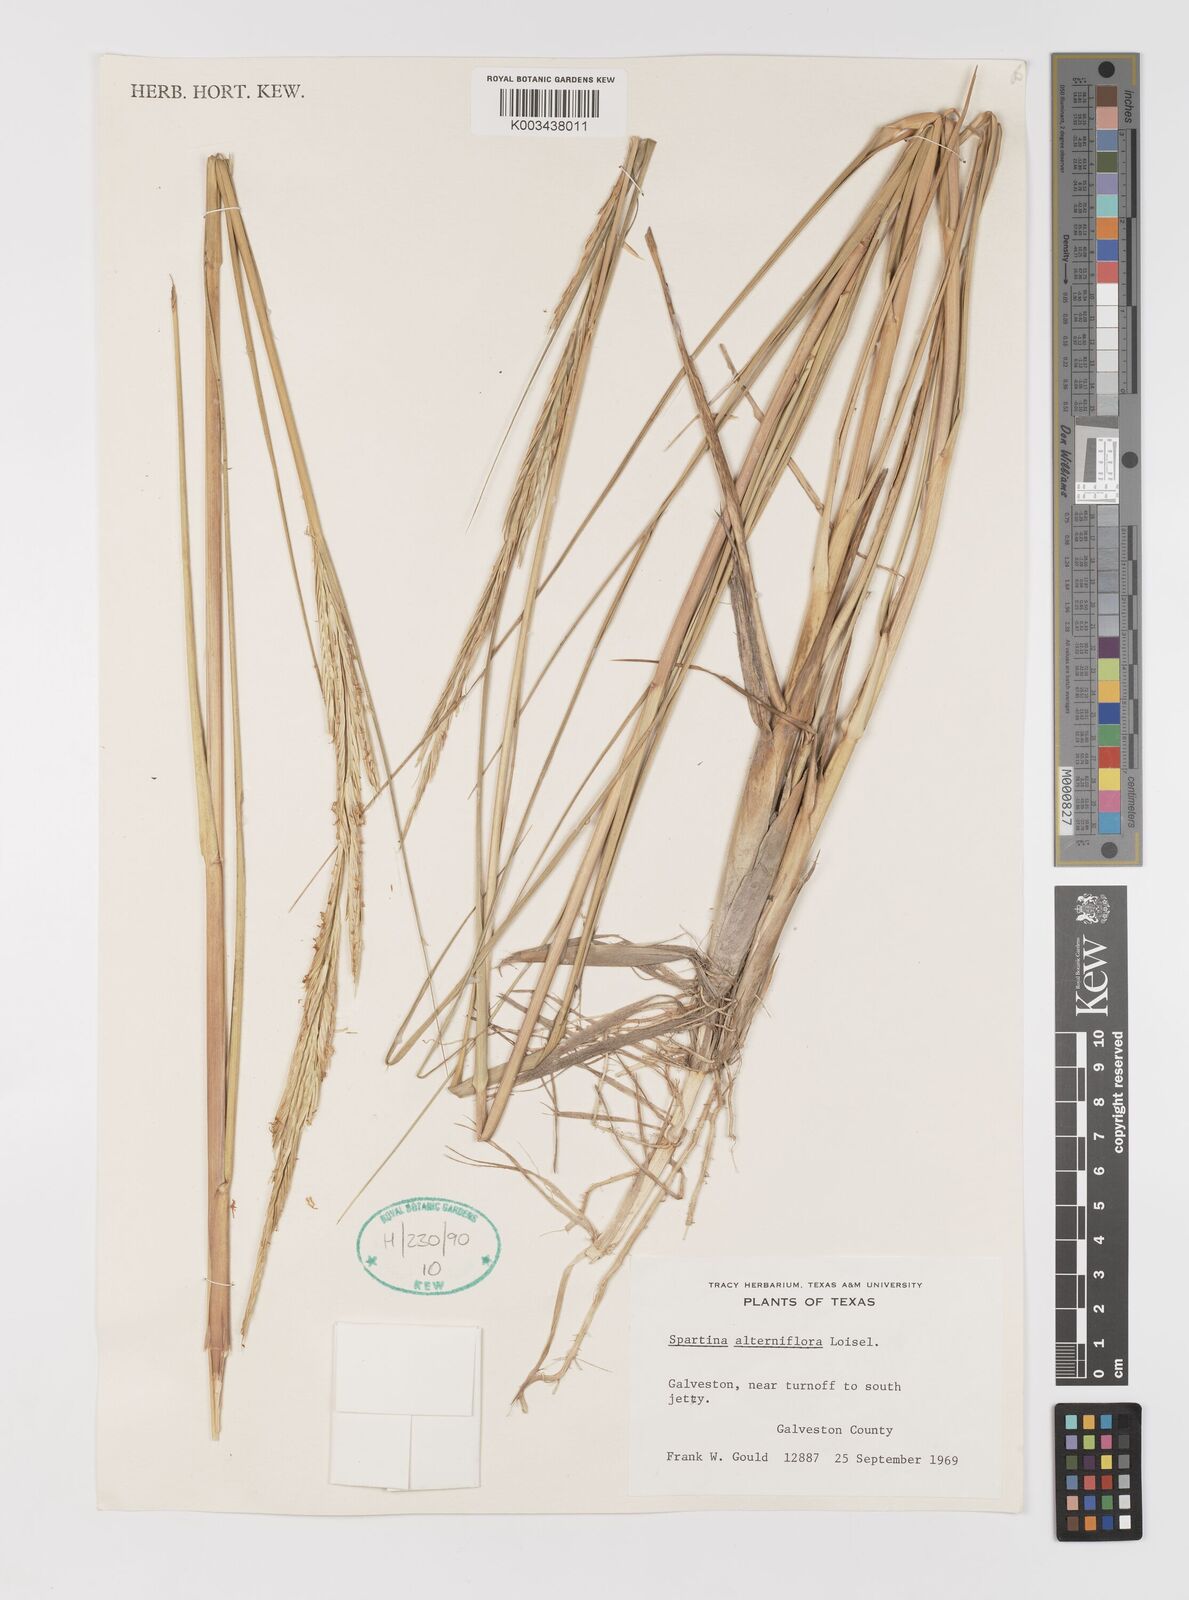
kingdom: Animalia
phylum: Mollusca
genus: Spartina
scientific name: Spartina
